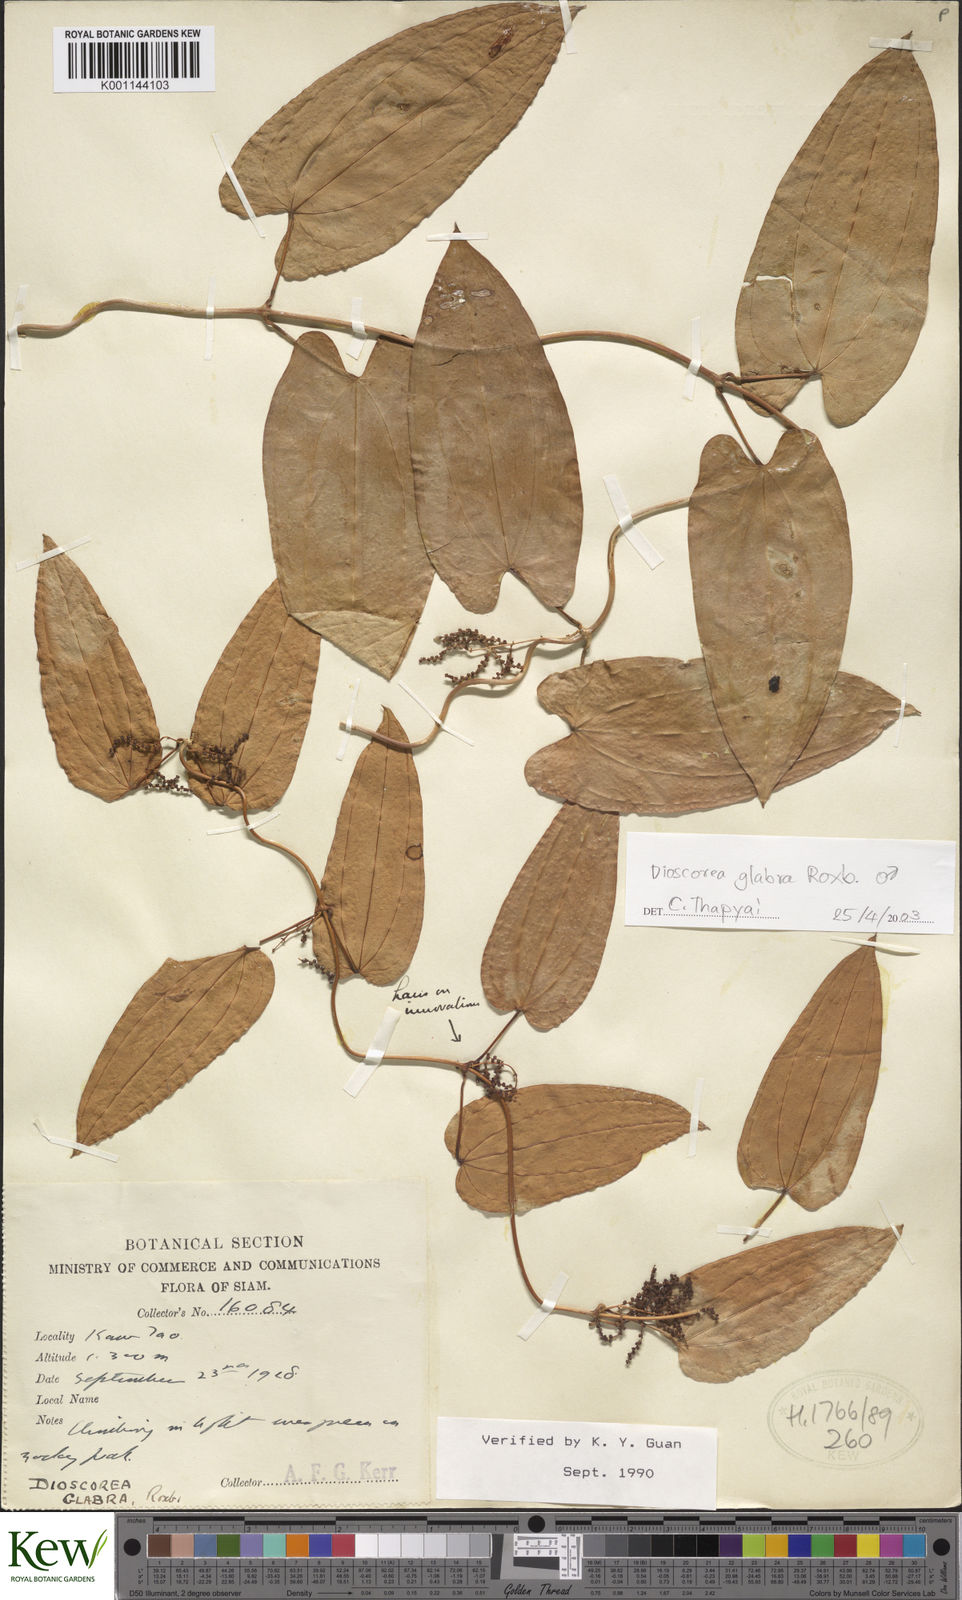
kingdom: Plantae
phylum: Tracheophyta
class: Liliopsida
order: Dioscoreales
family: Dioscoreaceae
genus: Dioscorea
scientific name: Dioscorea glabra
